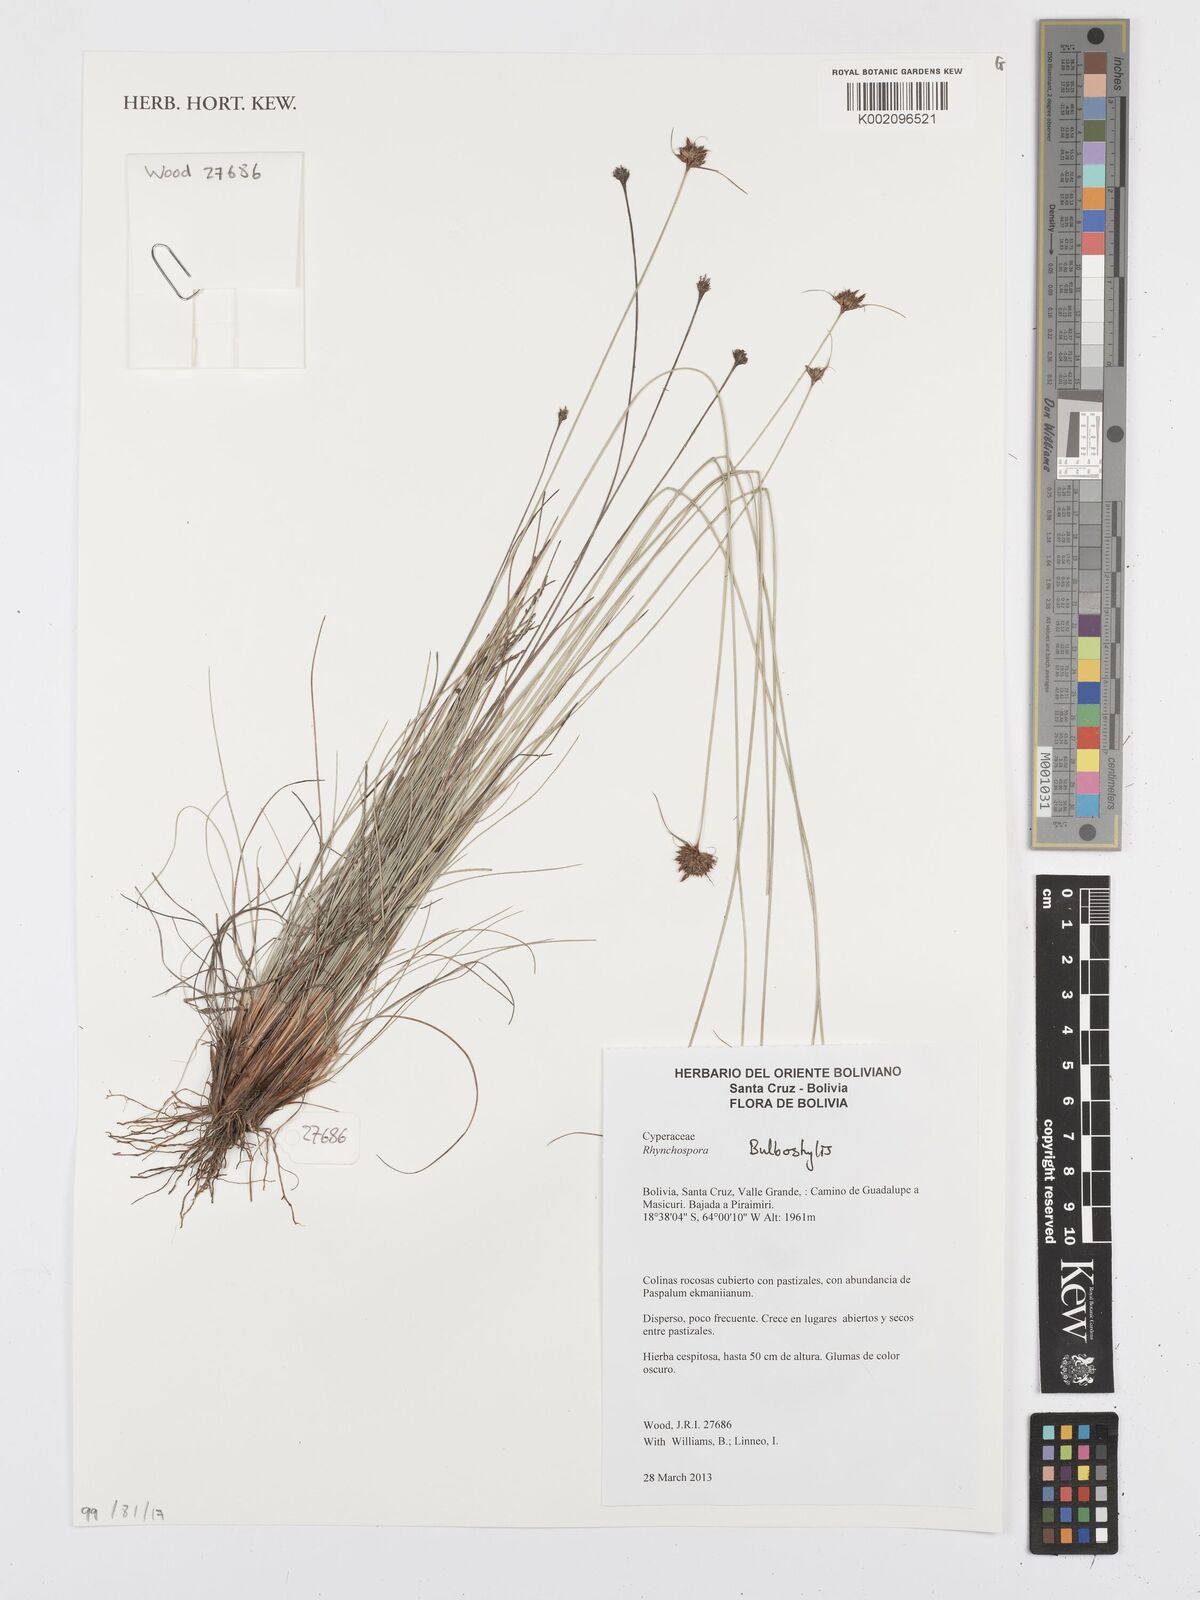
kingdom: Plantae
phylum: Tracheophyta
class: Liliopsida
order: Poales
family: Cyperaceae
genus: Bulbostylis
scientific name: Bulbostylis
